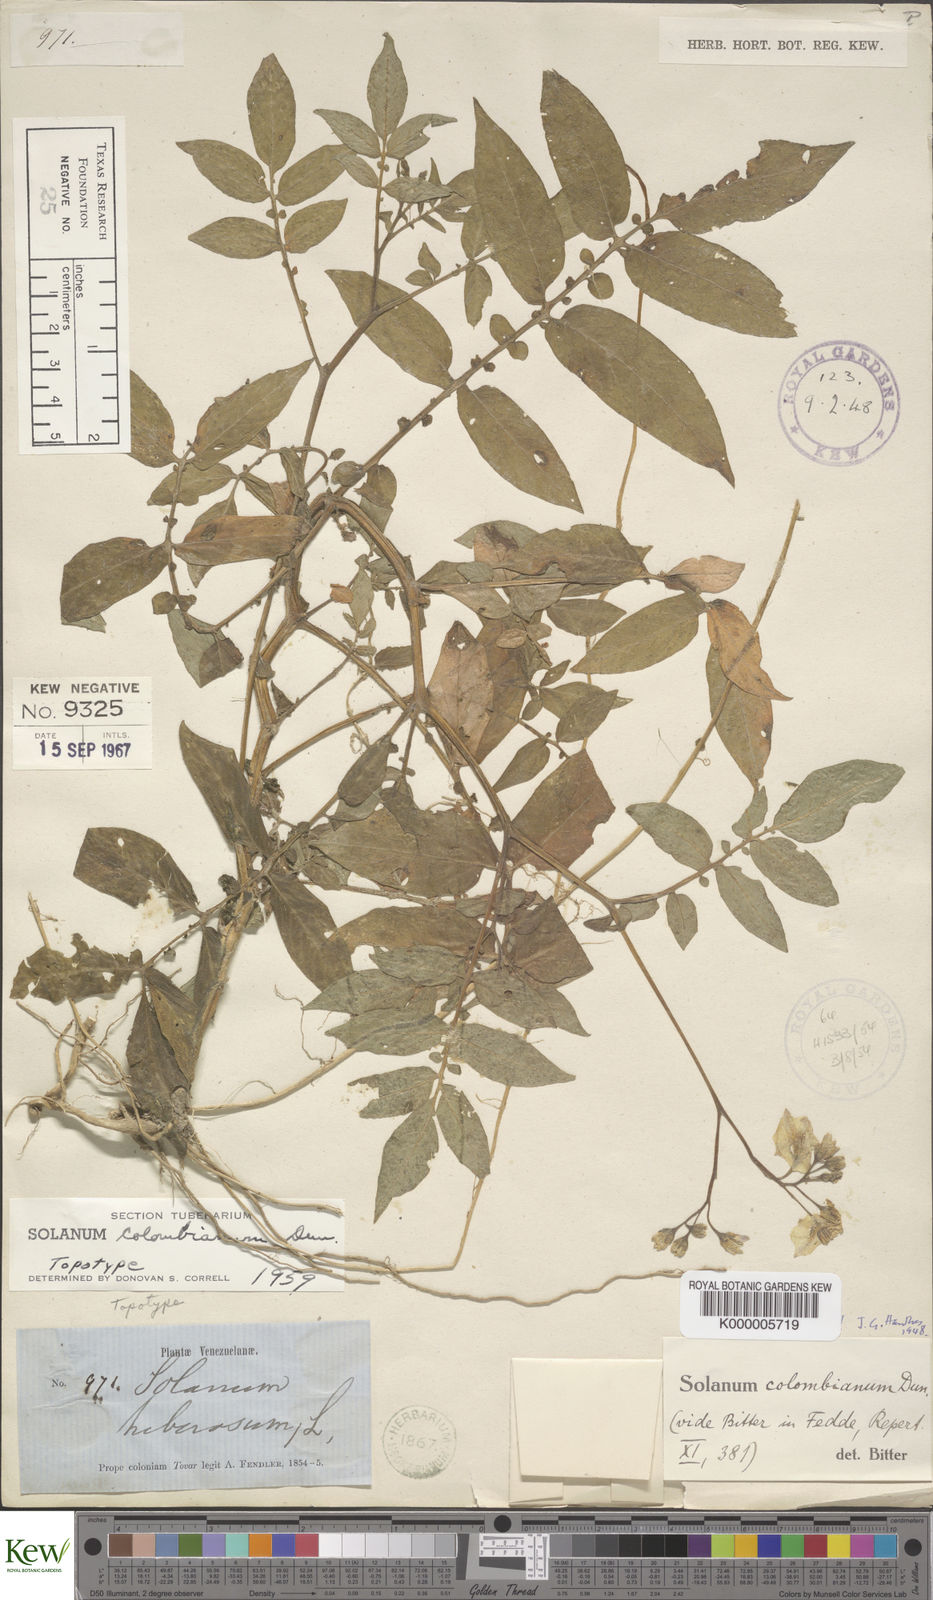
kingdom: Plantae
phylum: Tracheophyta
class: Magnoliopsida
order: Solanales
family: Solanaceae
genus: Solanum
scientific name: Solanum colombianum
